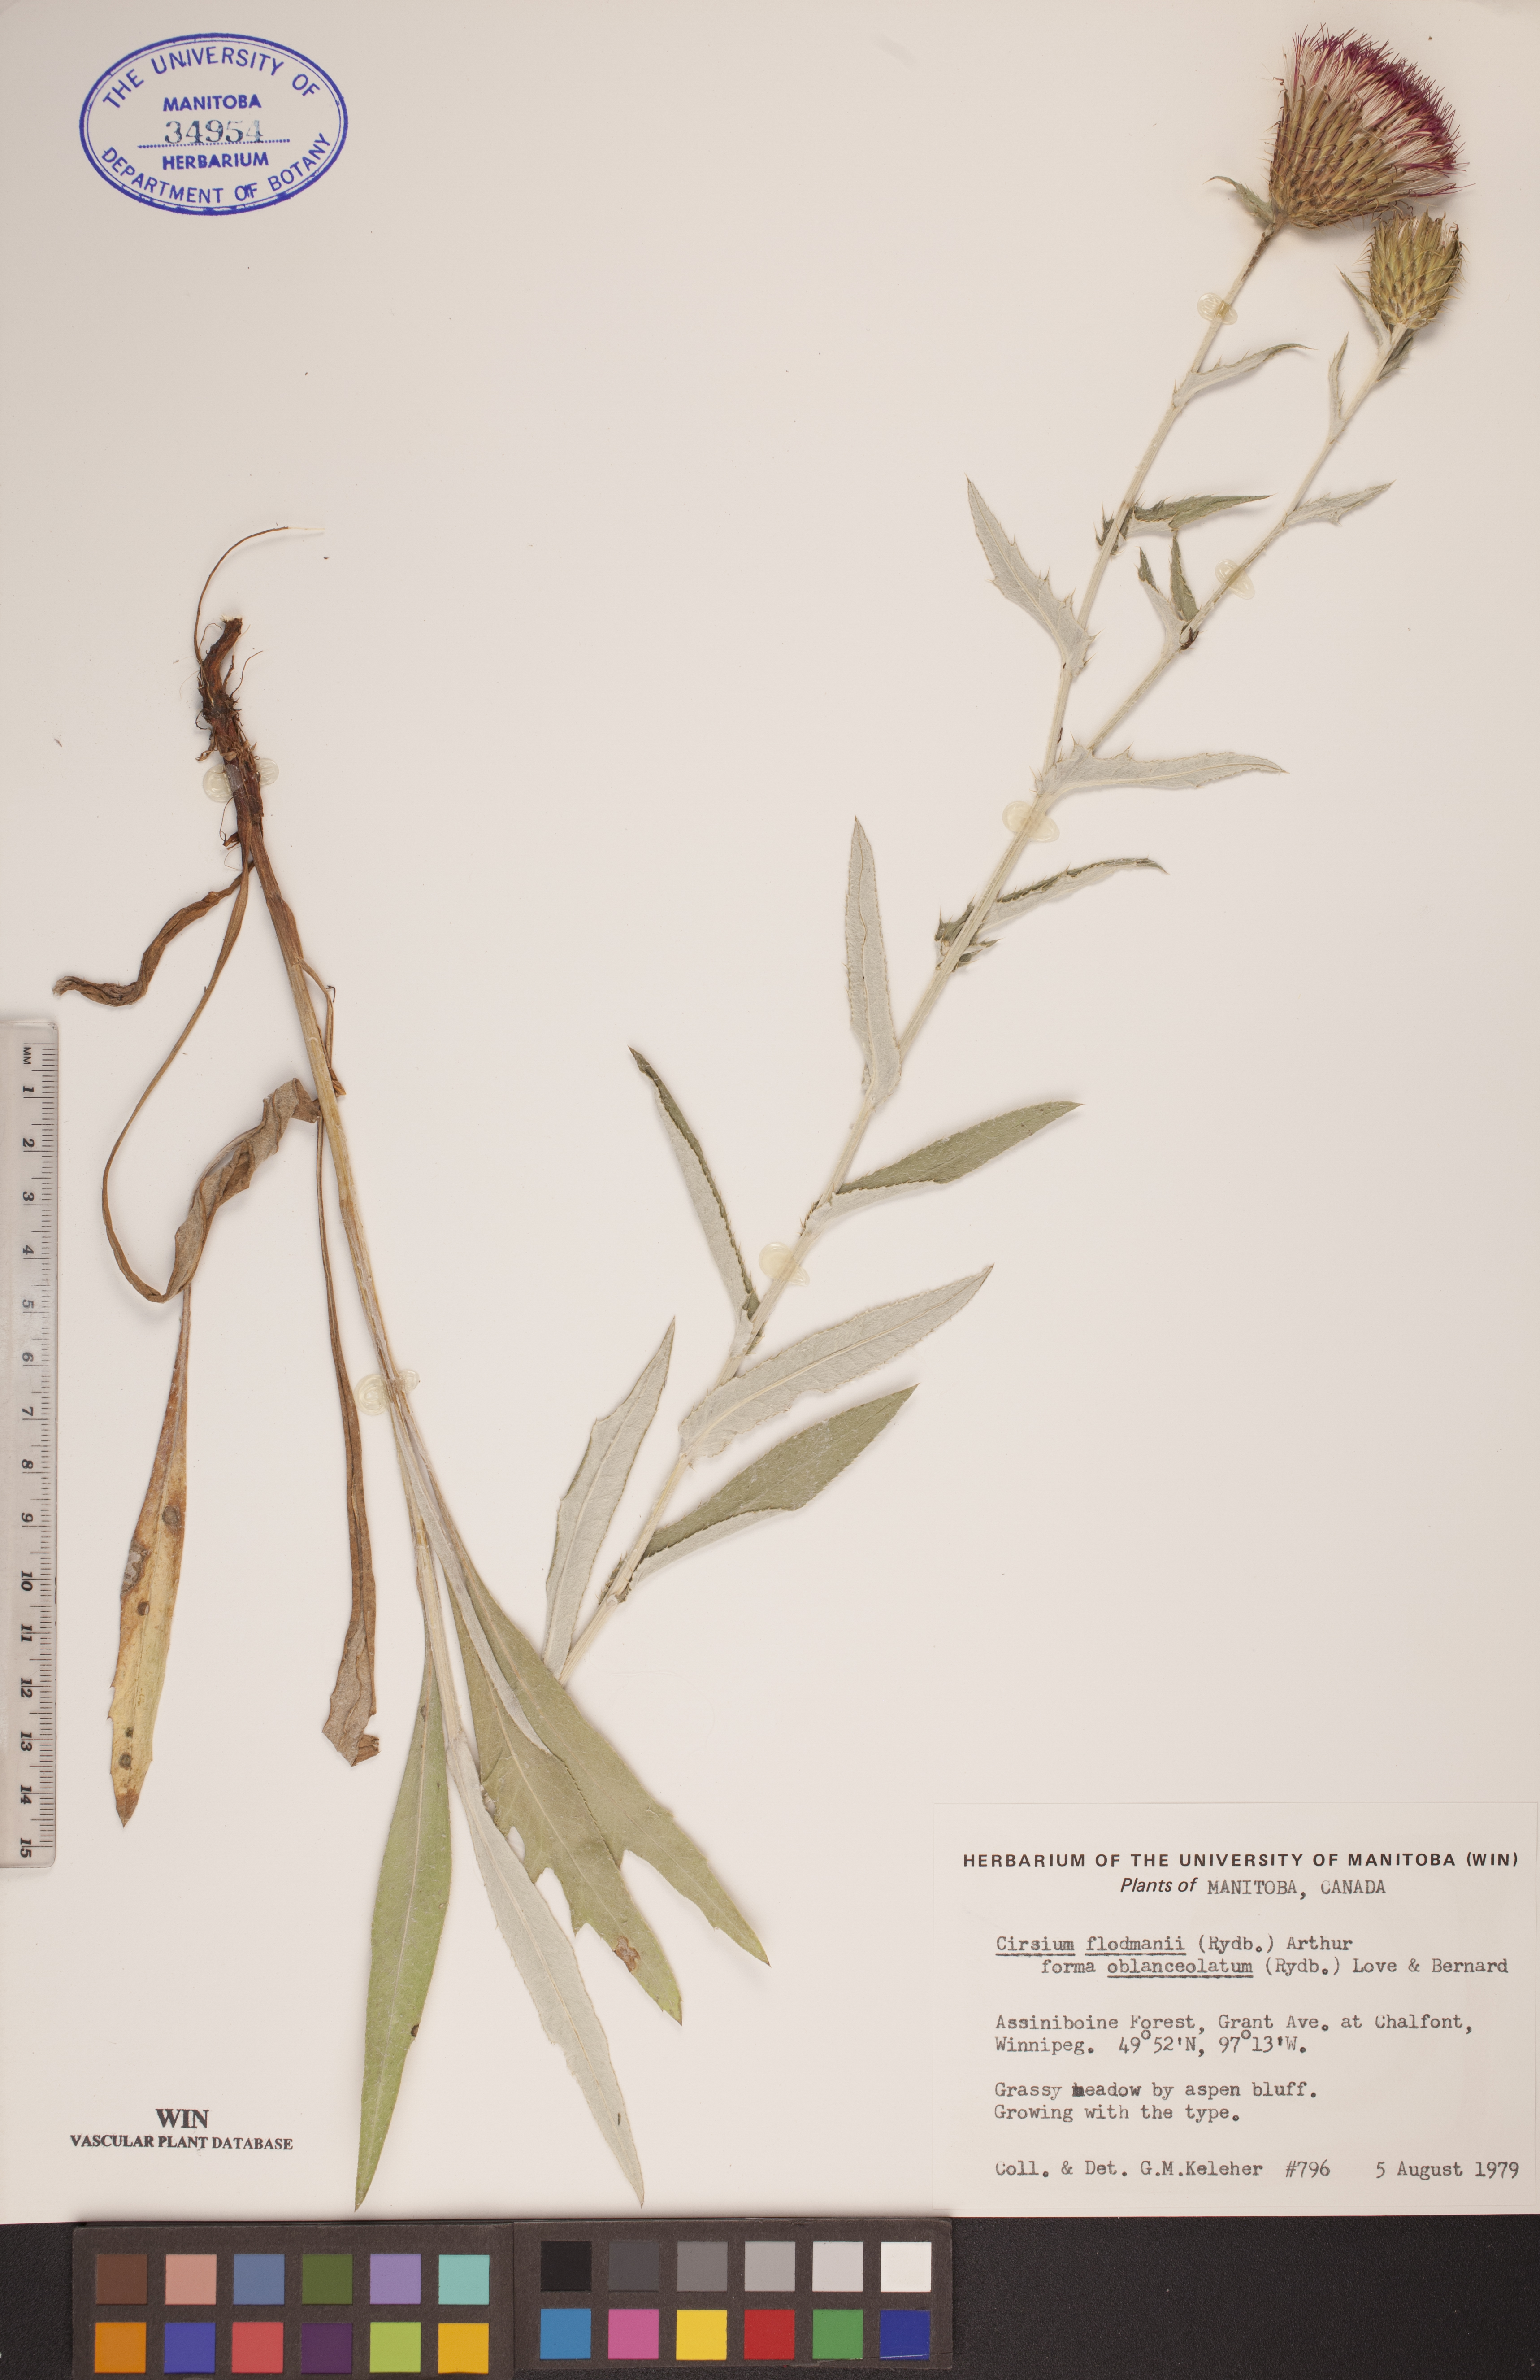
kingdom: Plantae
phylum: Tracheophyta
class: Magnoliopsida
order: Asterales
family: Asteraceae
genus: Cirsium
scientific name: Cirsium flodmanii
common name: Flodman's thistle
